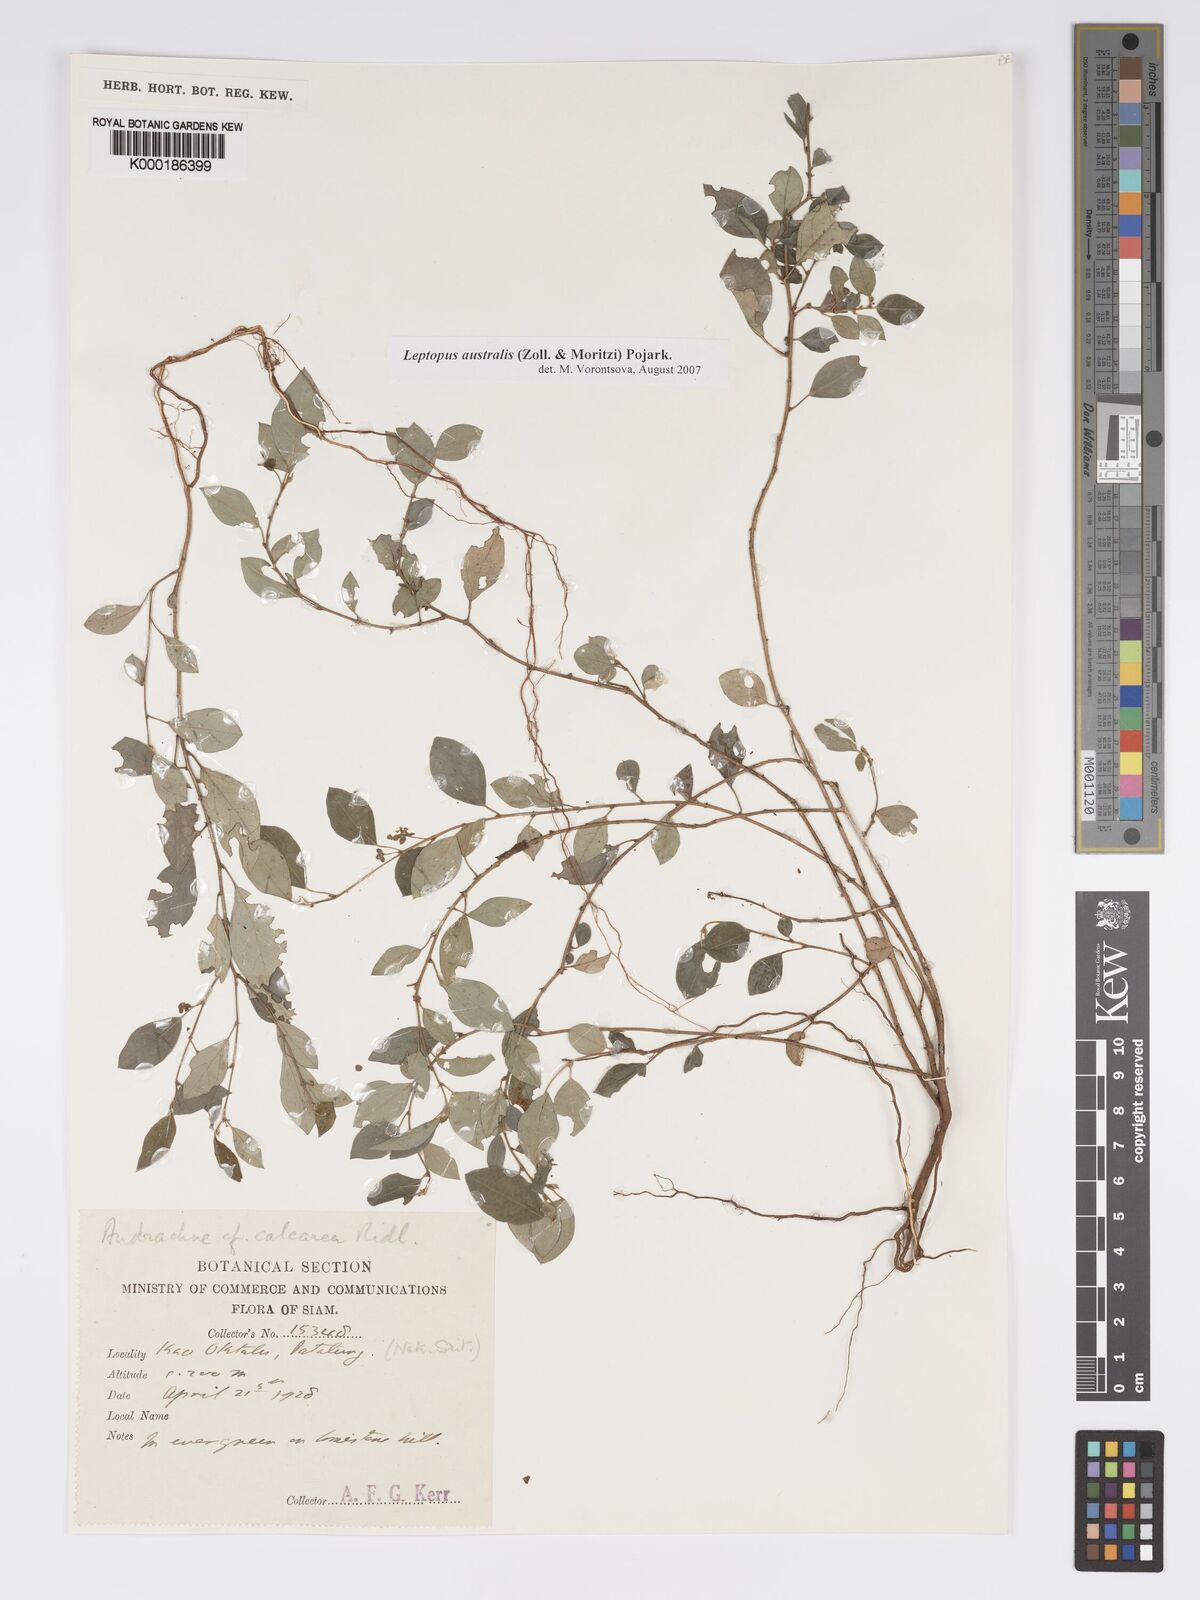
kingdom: Plantae
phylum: Tracheophyta
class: Magnoliopsida
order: Malpighiales
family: Phyllanthaceae
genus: Andrachne
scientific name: Andrachne
